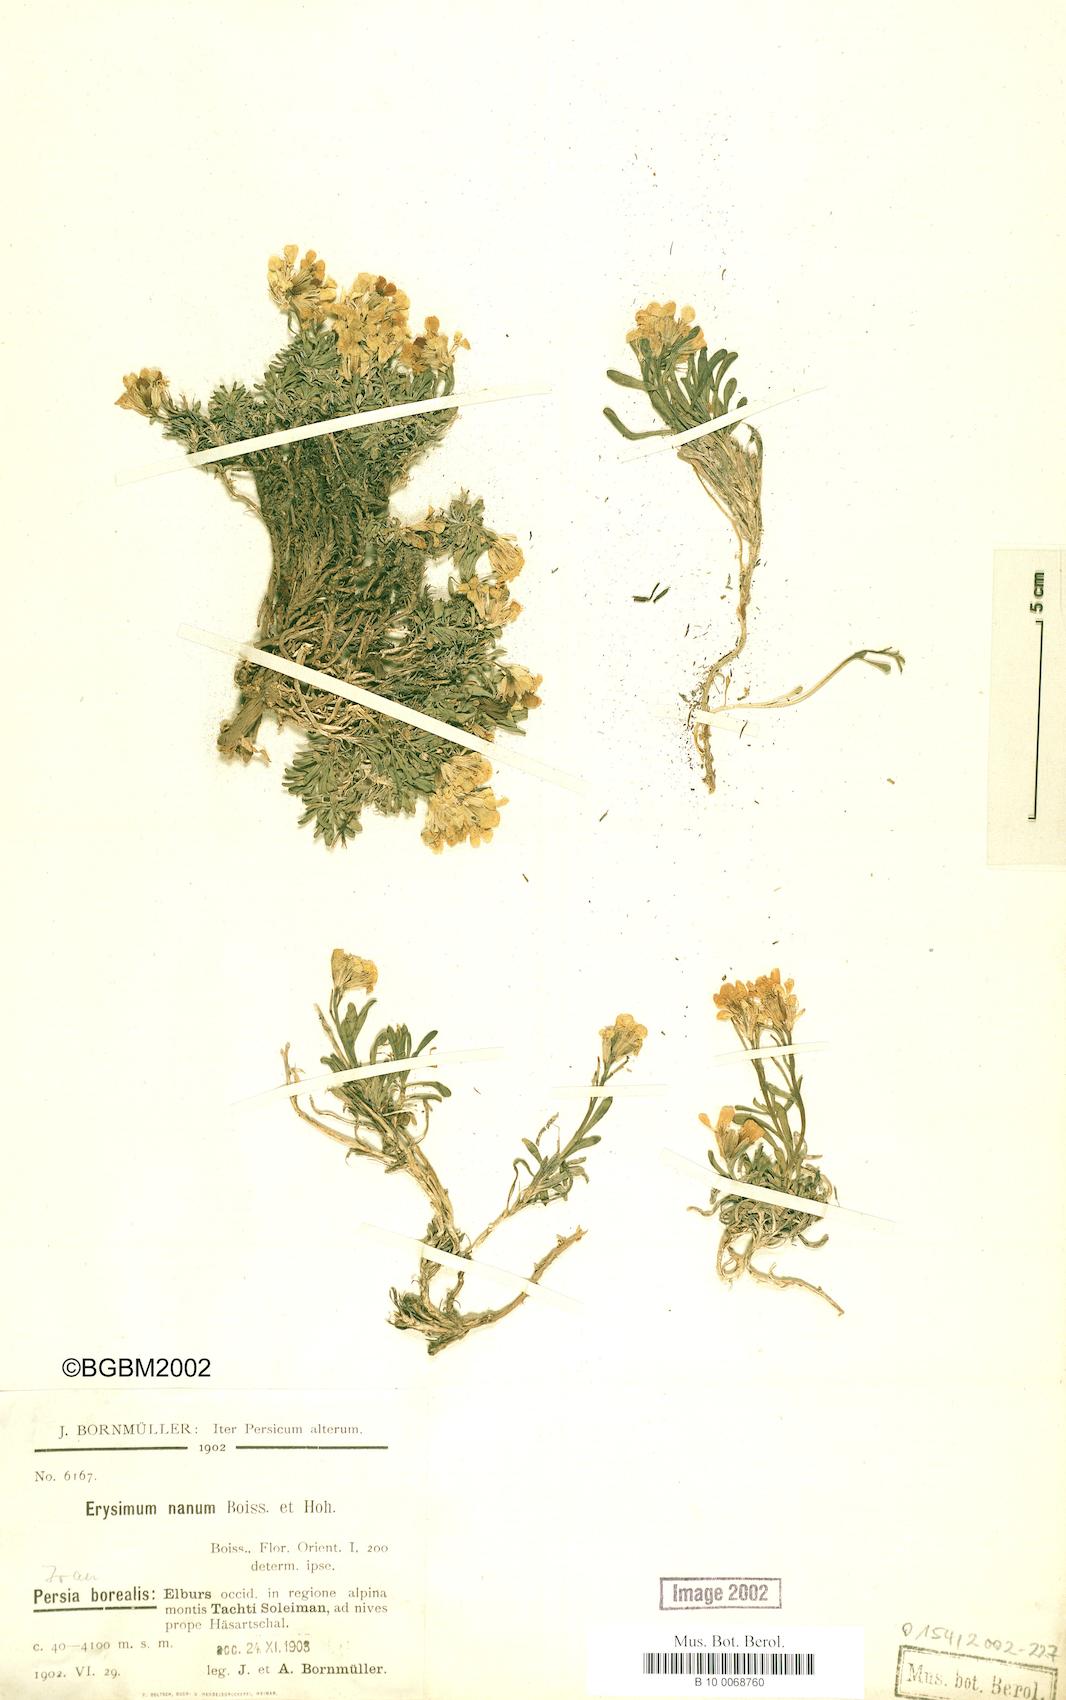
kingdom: Plantae
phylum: Tracheophyta
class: Magnoliopsida
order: Brassicales
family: Brassicaceae
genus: Erysimum
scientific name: Erysimum nanum
